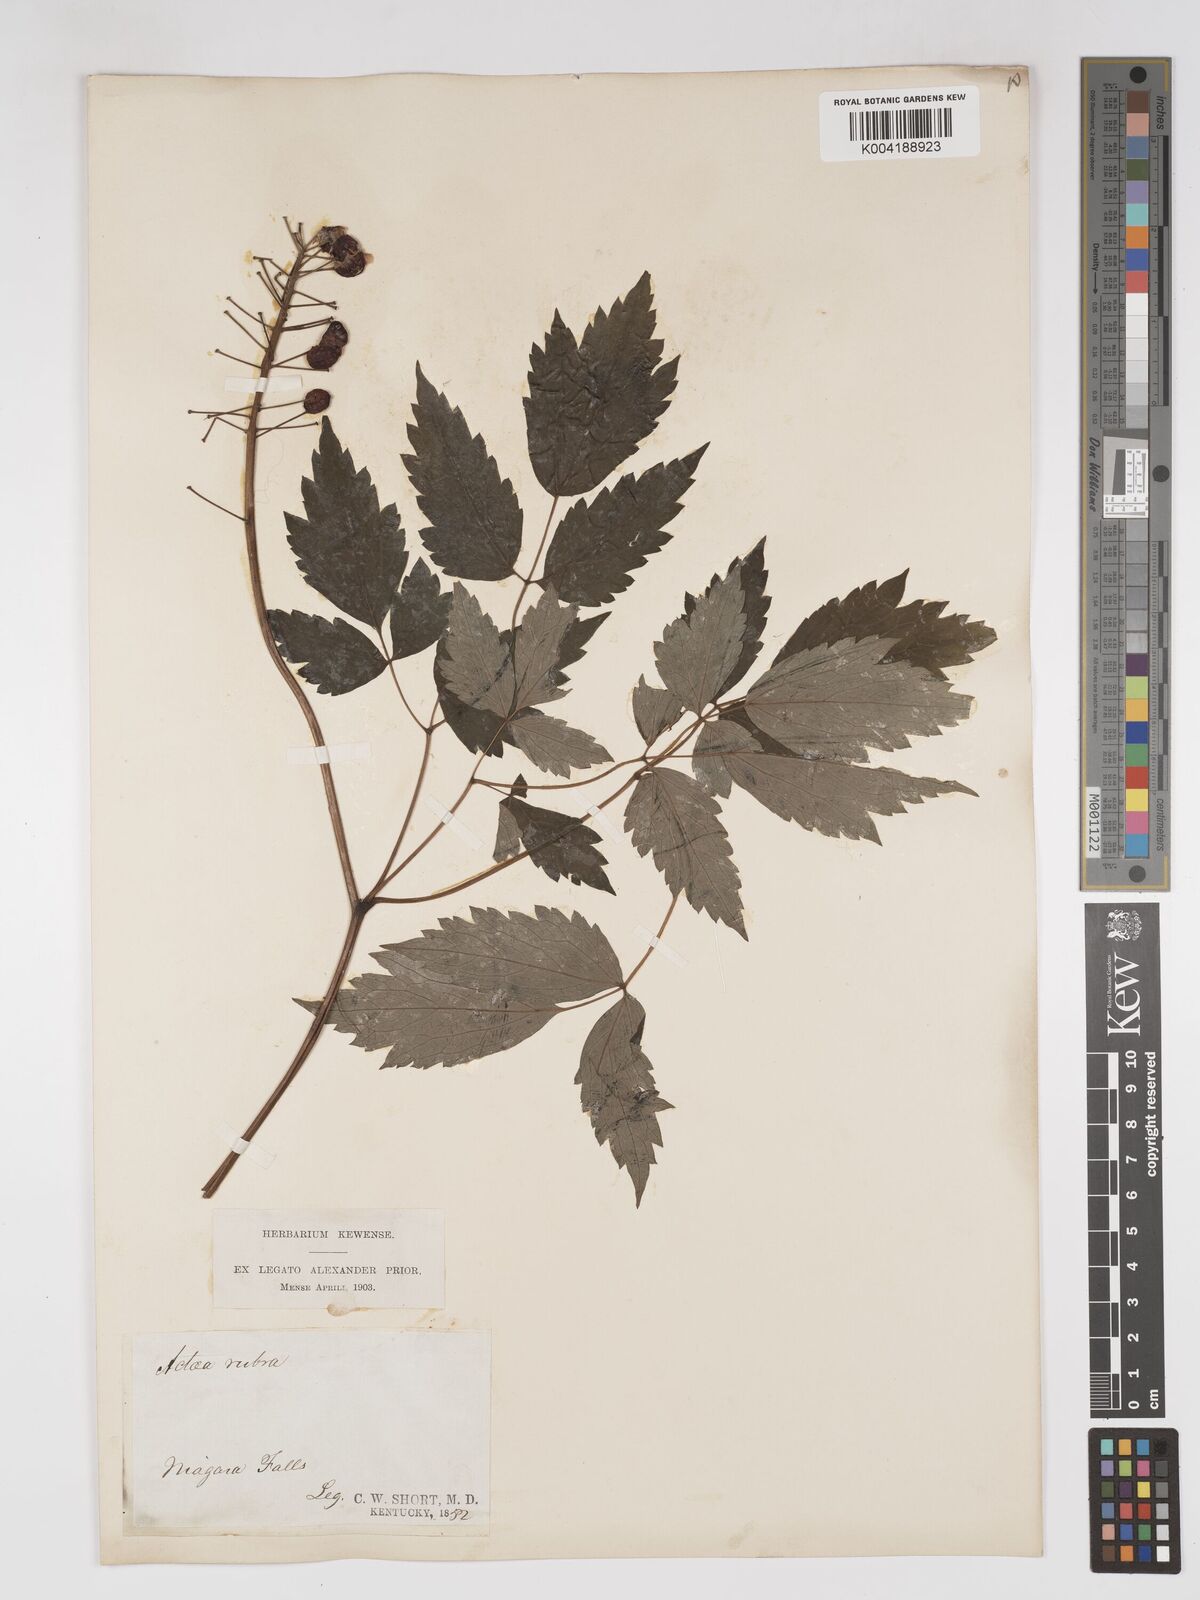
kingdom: Plantae
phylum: Tracheophyta
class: Magnoliopsida
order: Ranunculales
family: Ranunculaceae
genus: Actaea
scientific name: Actaea rubra
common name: Red baneberry
